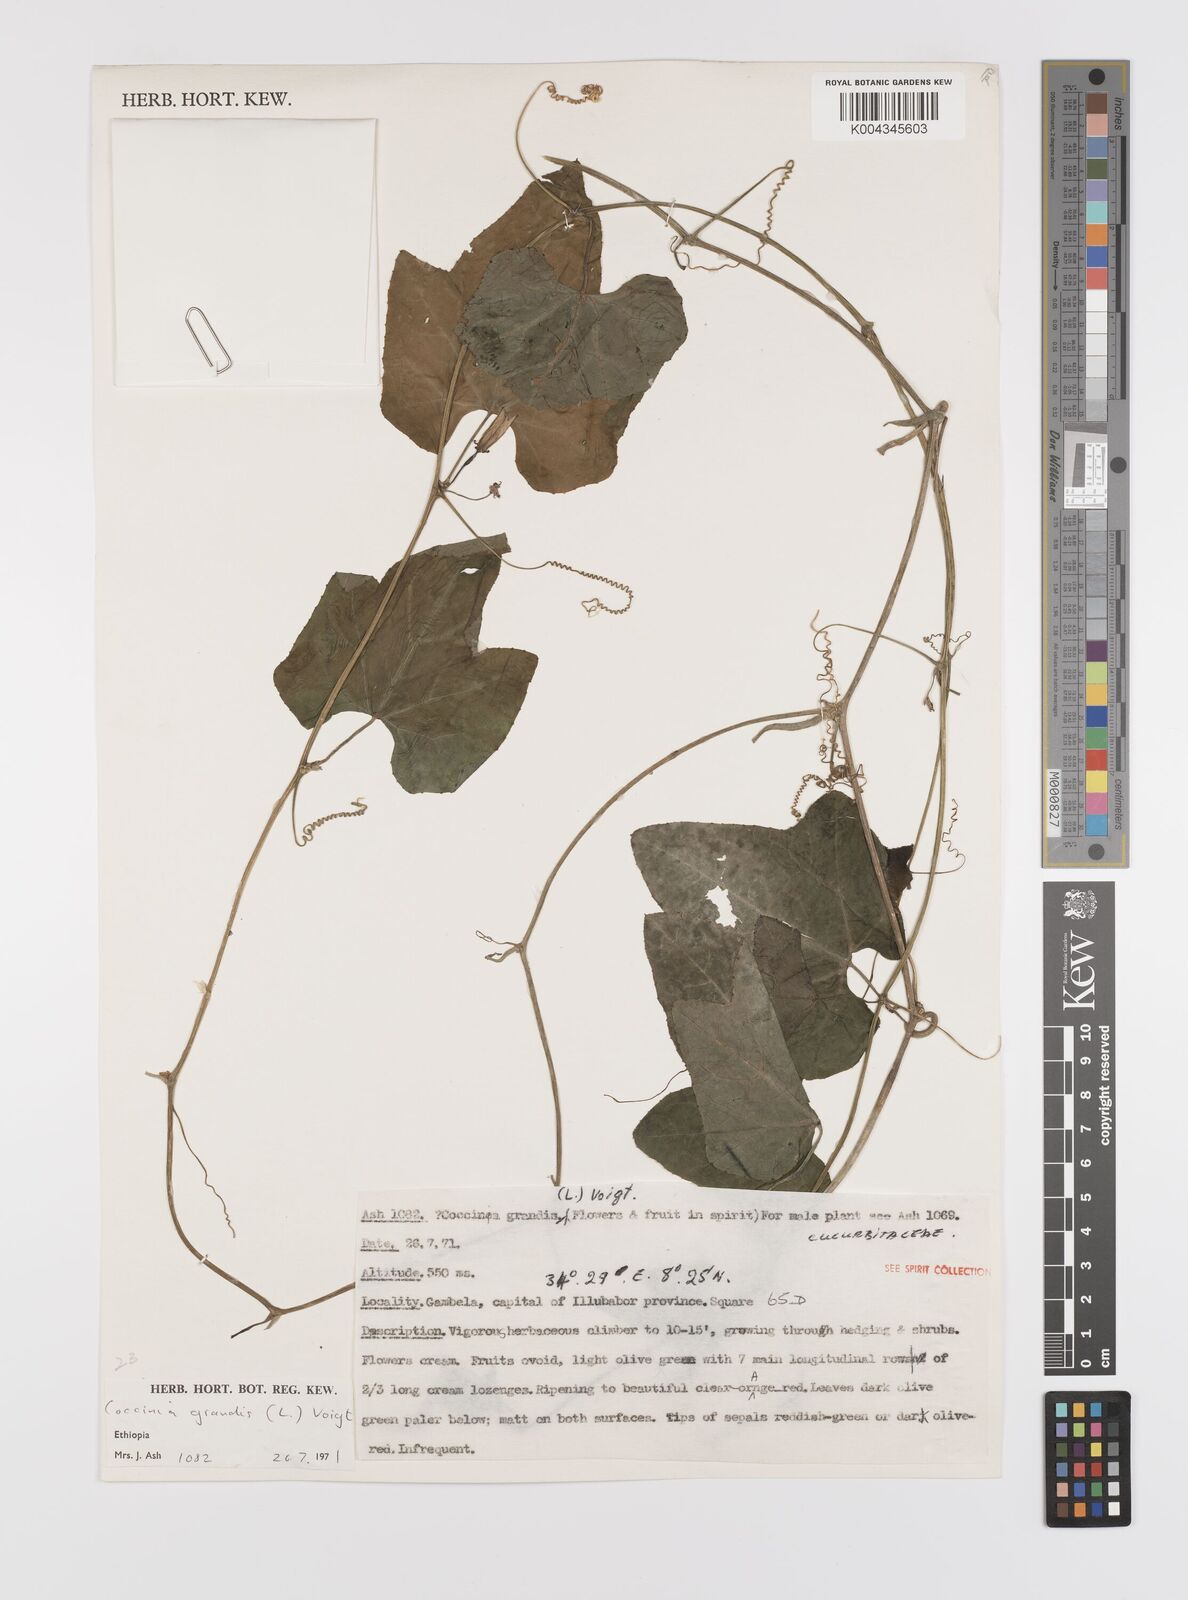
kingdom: Plantae
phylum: Tracheophyta
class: Magnoliopsida
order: Cucurbitales
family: Cucurbitaceae
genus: Coccinia
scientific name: Coccinia grandis
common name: Ivy gourd
